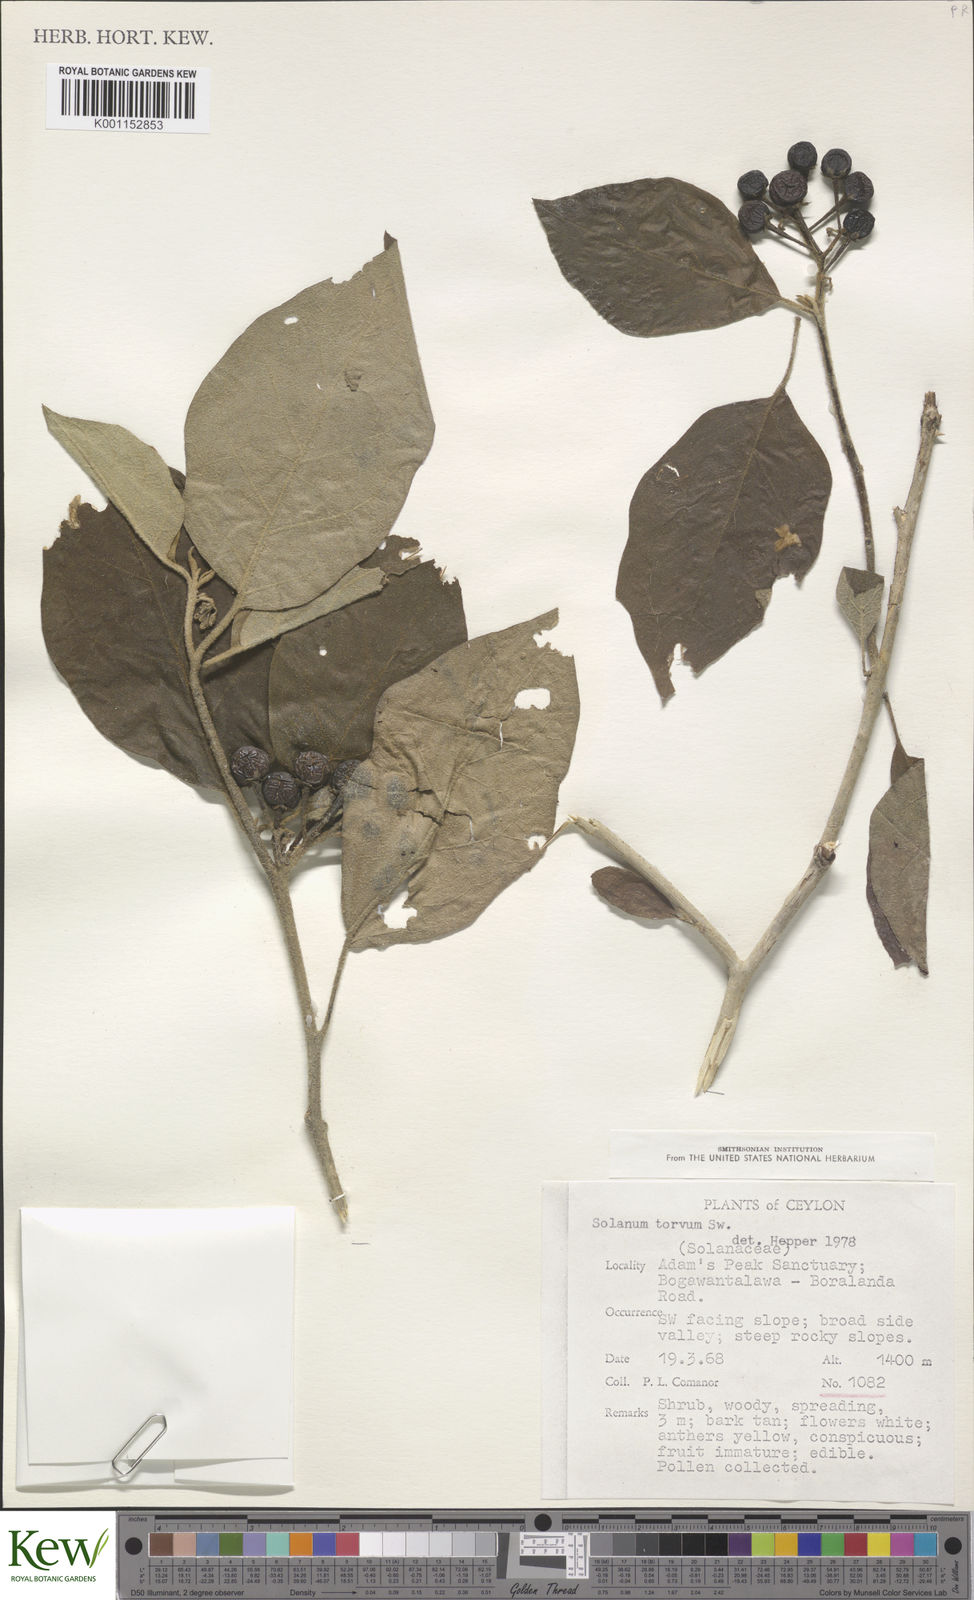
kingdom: Plantae
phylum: Tracheophyta
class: Magnoliopsida
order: Solanales
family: Solanaceae
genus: Solanum
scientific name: Solanum torvum
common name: Turkey berry
